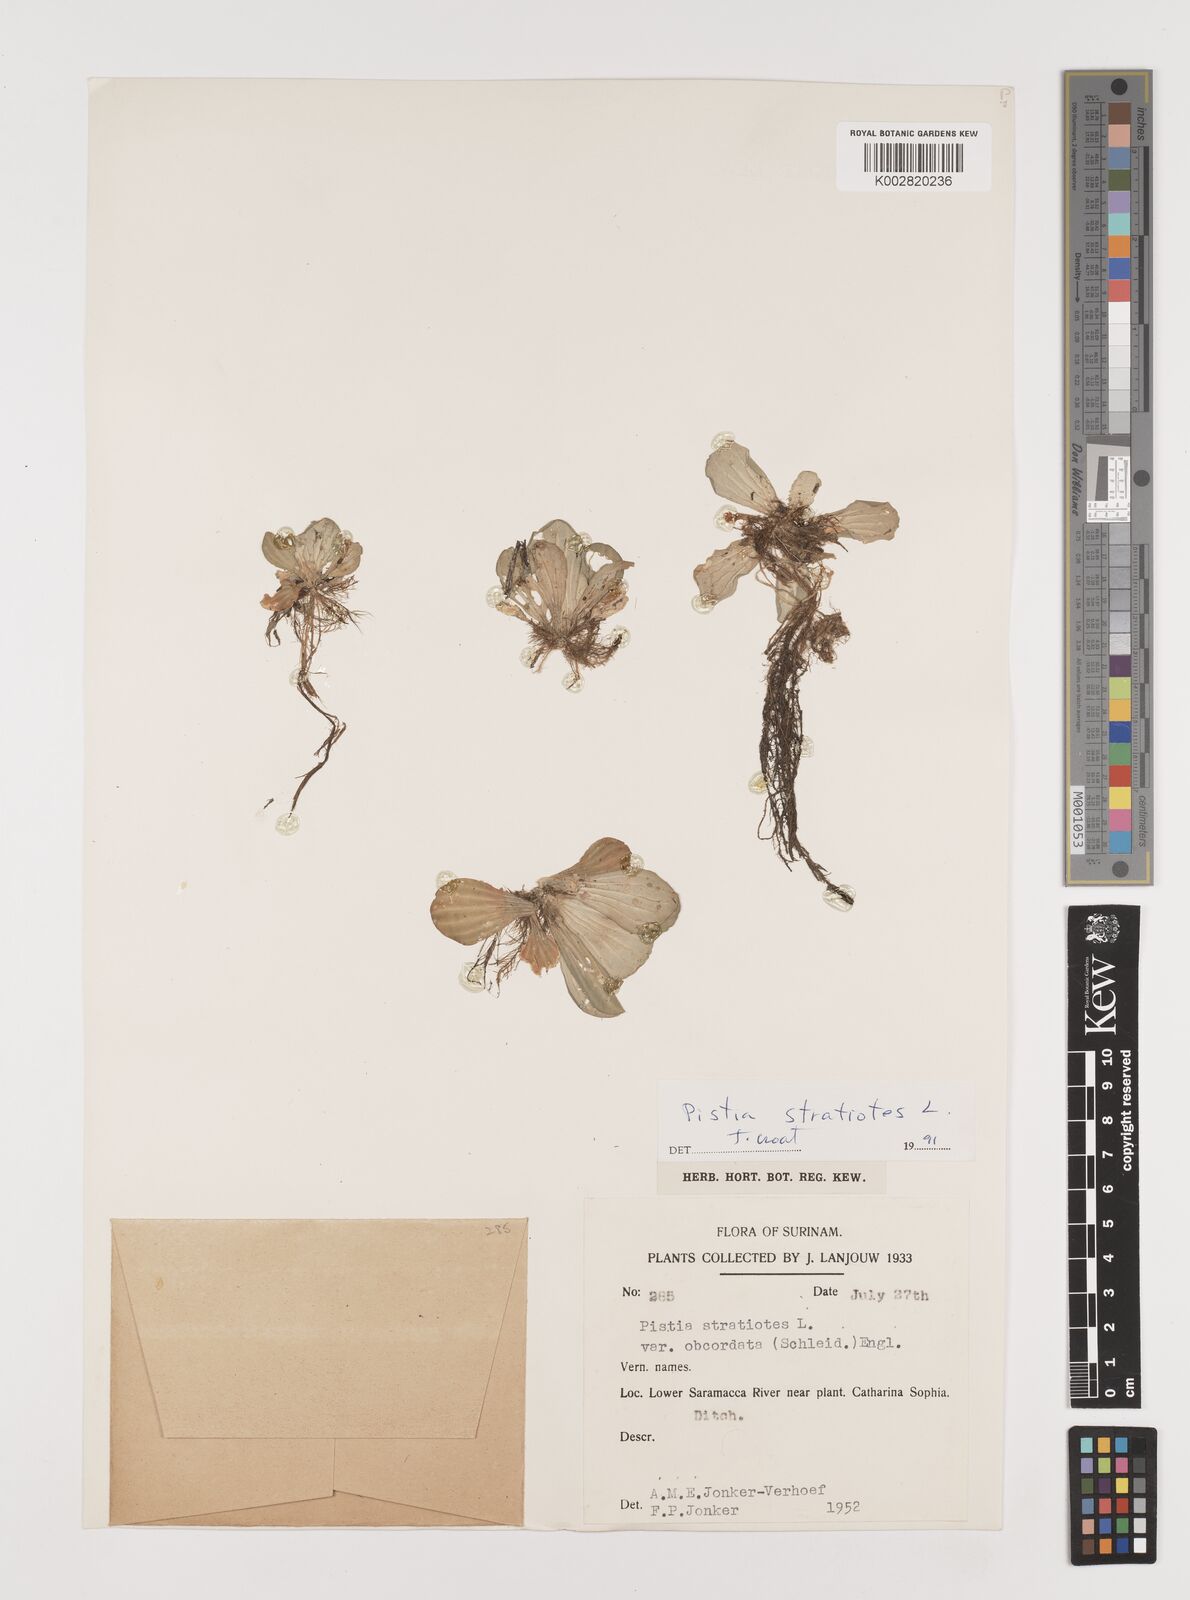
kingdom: Plantae
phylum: Tracheophyta
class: Liliopsida
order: Alismatales
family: Araceae
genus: Pistia
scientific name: Pistia stratiotes
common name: Water lettuce
